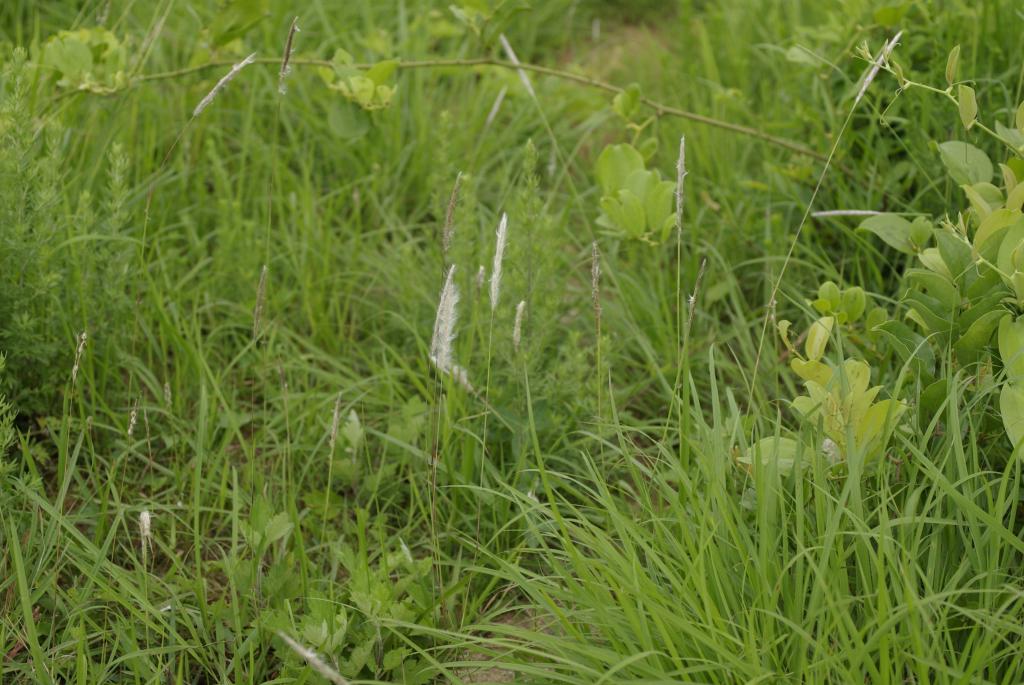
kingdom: Plantae
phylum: Tracheophyta
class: Liliopsida
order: Poales
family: Poaceae
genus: Imperata
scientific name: Imperata cylindrica
